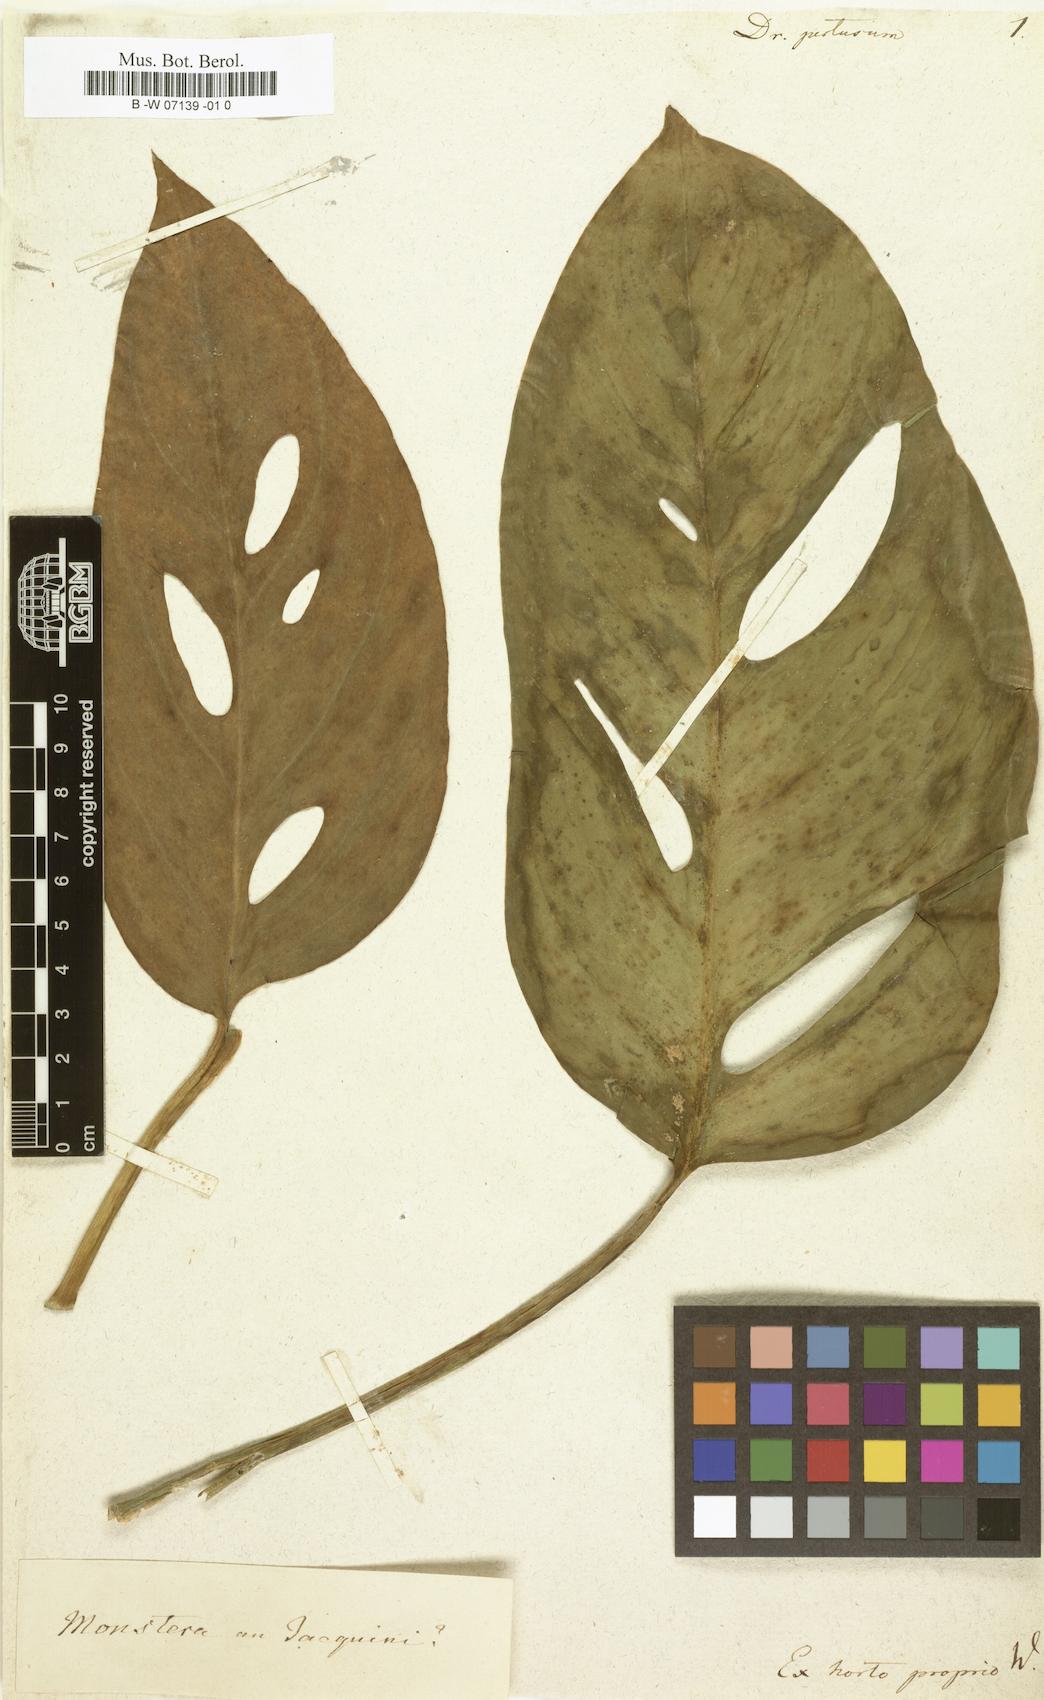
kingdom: Plantae
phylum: Tracheophyta
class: Liliopsida
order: Alismatales
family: Araceae
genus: Monstera
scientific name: Monstera adansonii
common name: Tarovine
